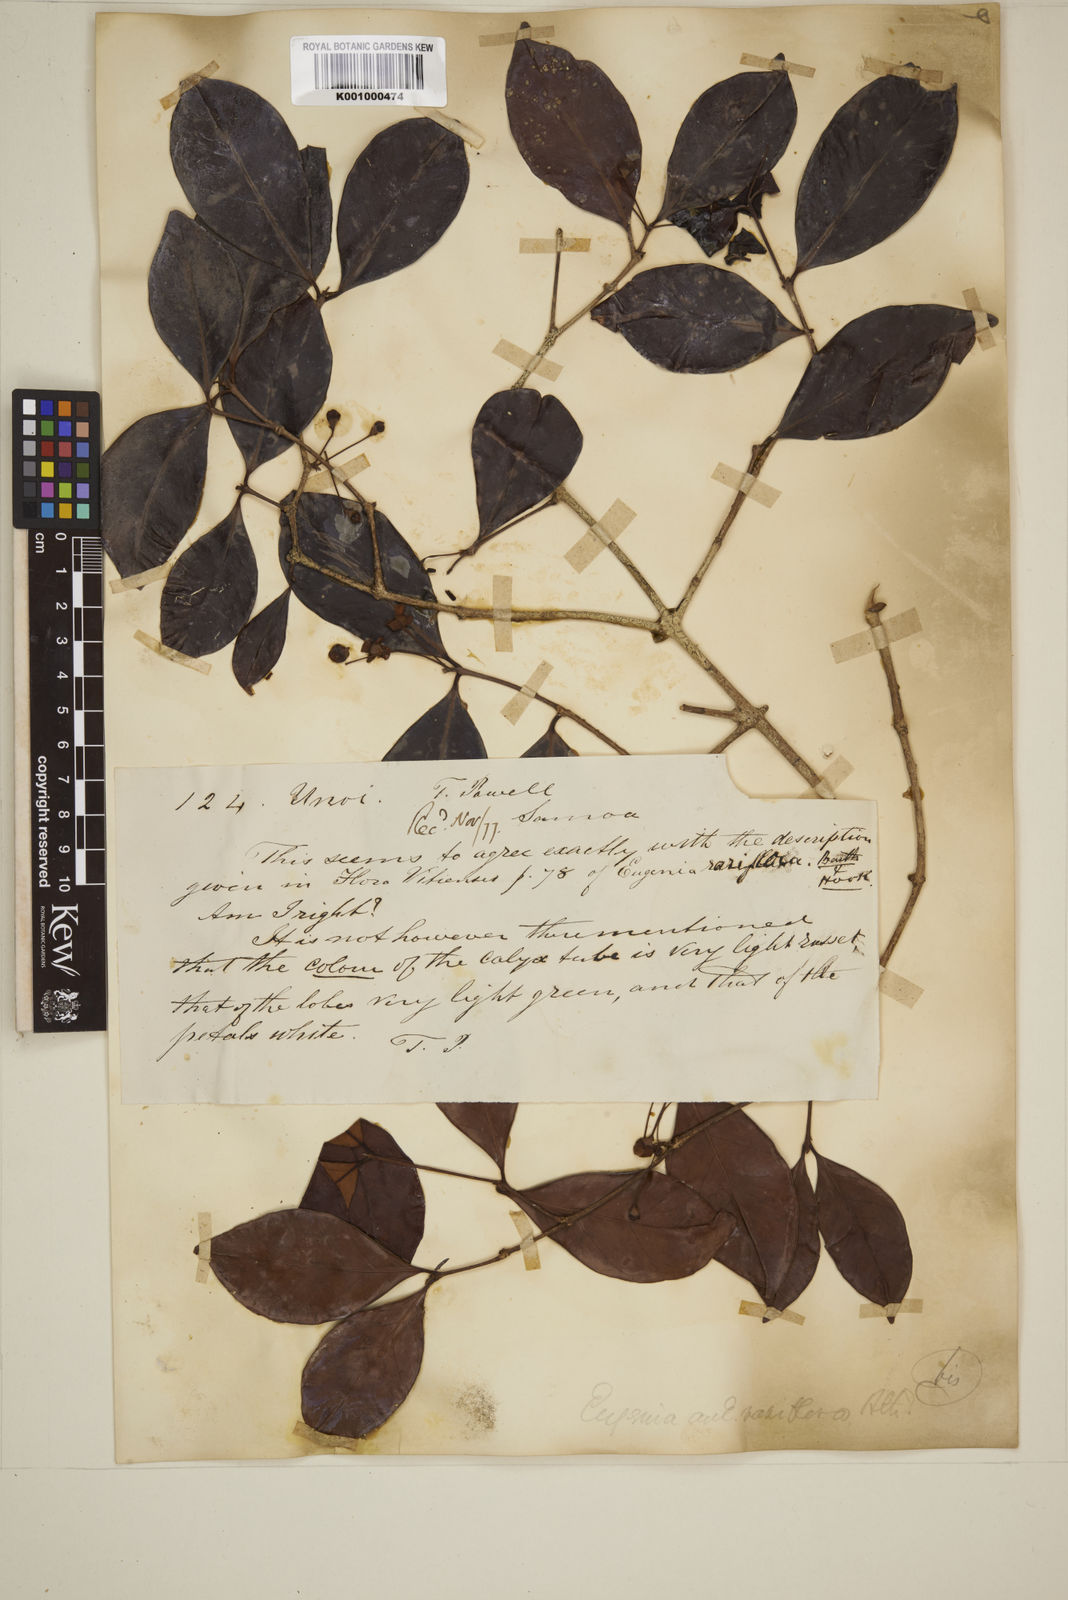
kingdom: Plantae
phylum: Tracheophyta
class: Magnoliopsida
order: Myrtales
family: Myrtaceae
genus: Eugenia
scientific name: Eugenia reinwardtiana
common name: Cedar bay-cherry
